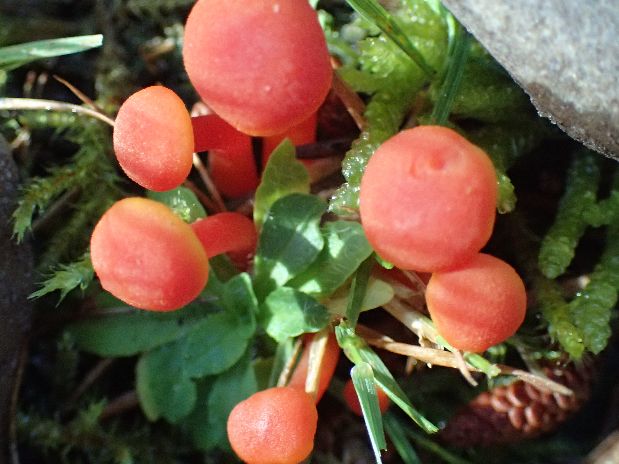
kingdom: Fungi
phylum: Basidiomycota
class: Agaricomycetes
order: Agaricales
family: Hygrophoraceae
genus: Hygrocybe
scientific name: Hygrocybe miniata
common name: mønje-vokshat
